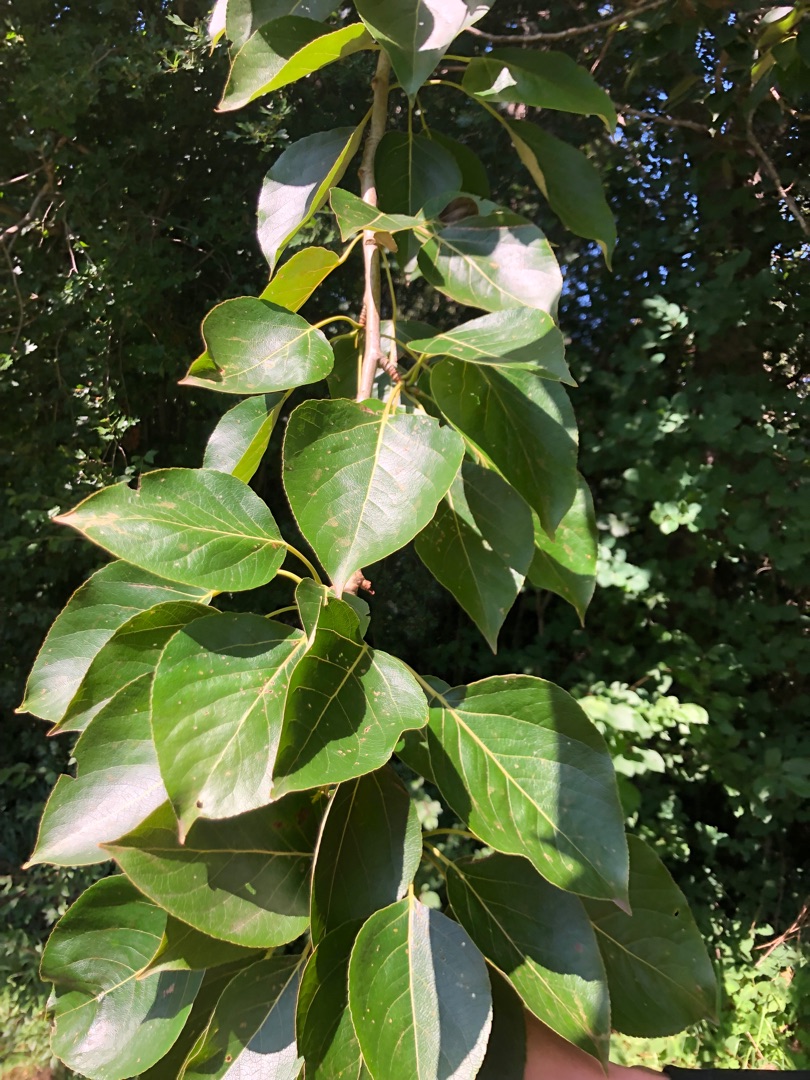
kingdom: Plantae
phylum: Tracheophyta
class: Magnoliopsida
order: Malpighiales
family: Salicaceae
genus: Populus
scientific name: Populus balsamifera
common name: Balsam-poppel
